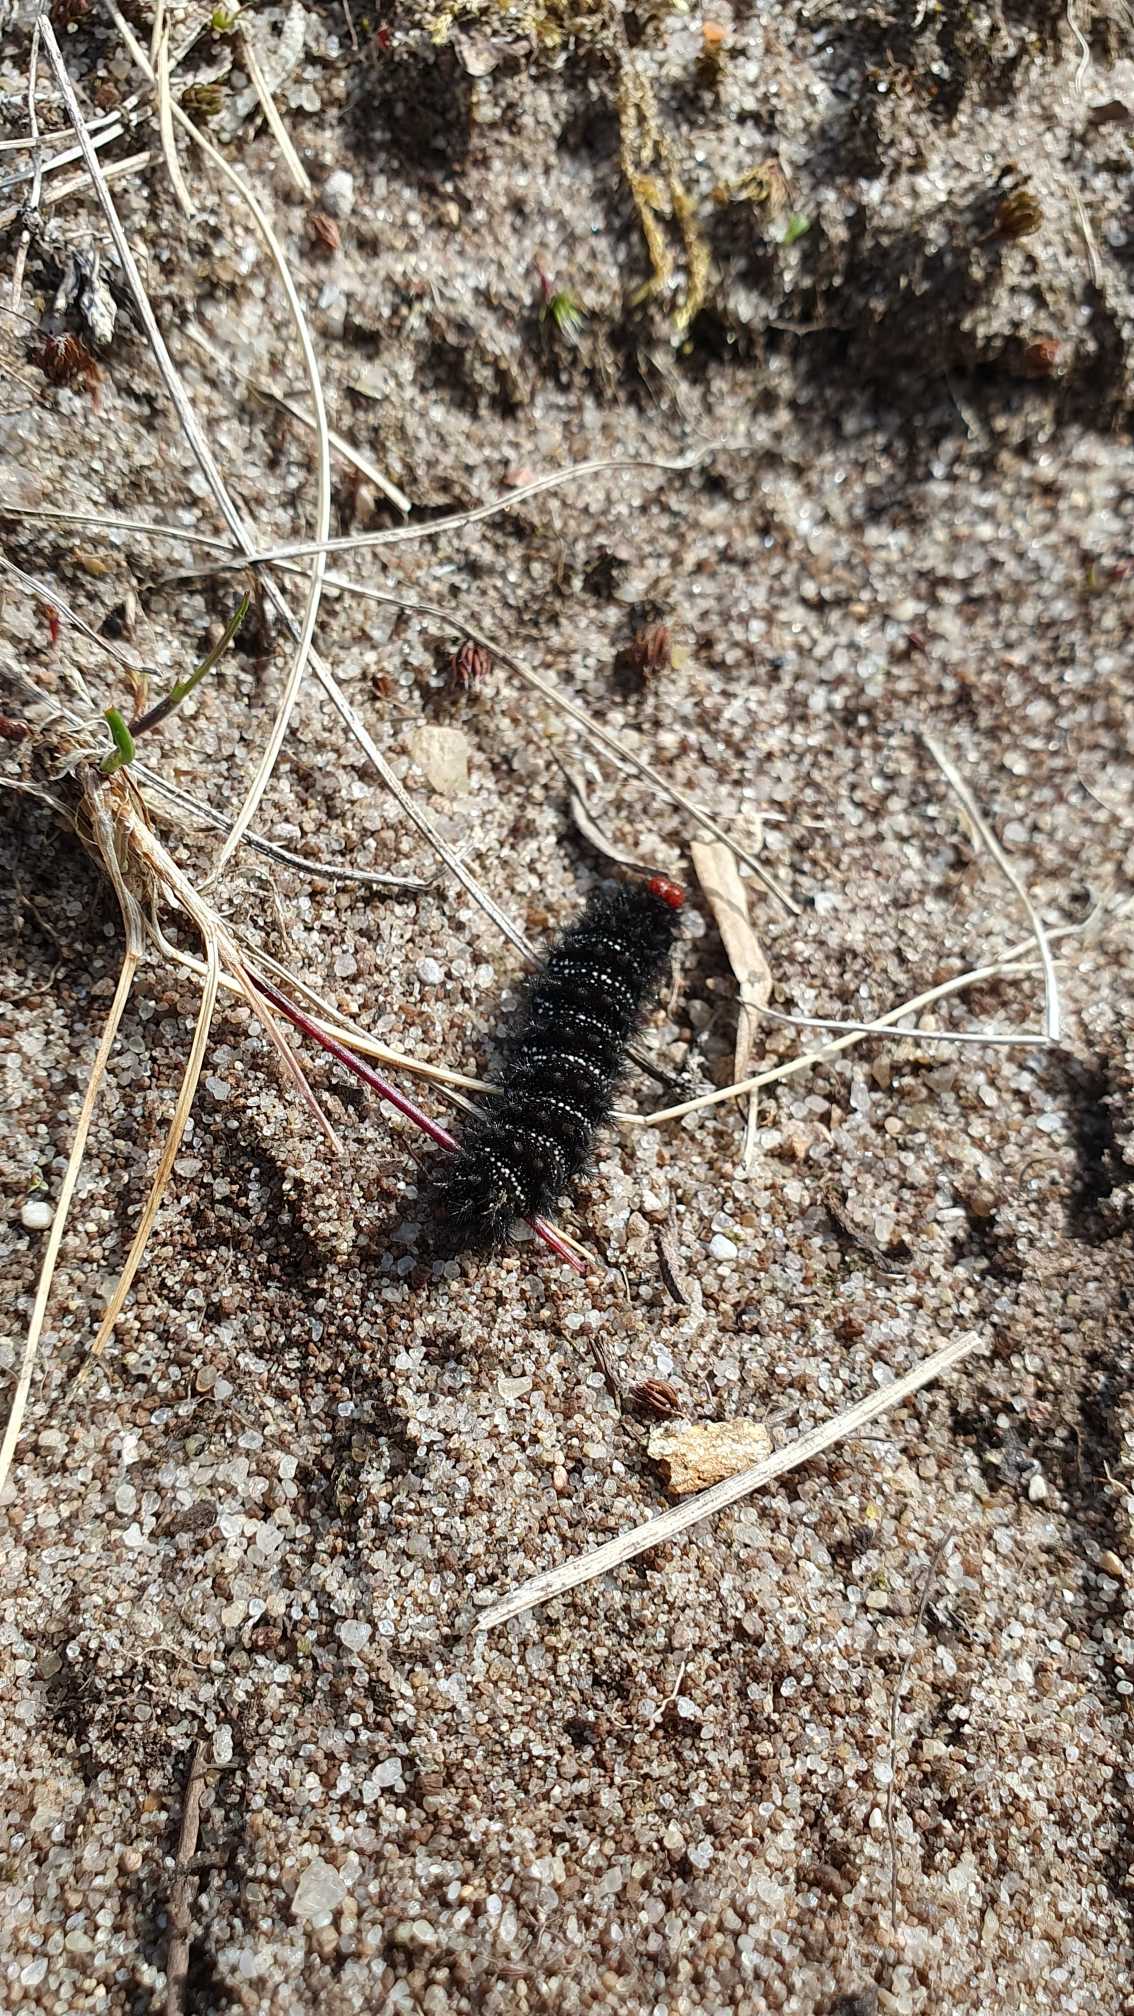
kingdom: Animalia
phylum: Arthropoda
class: Insecta
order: Lepidoptera
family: Nymphalidae
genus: Melitaea
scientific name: Melitaea cinxia
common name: Okkergul pletvinge
